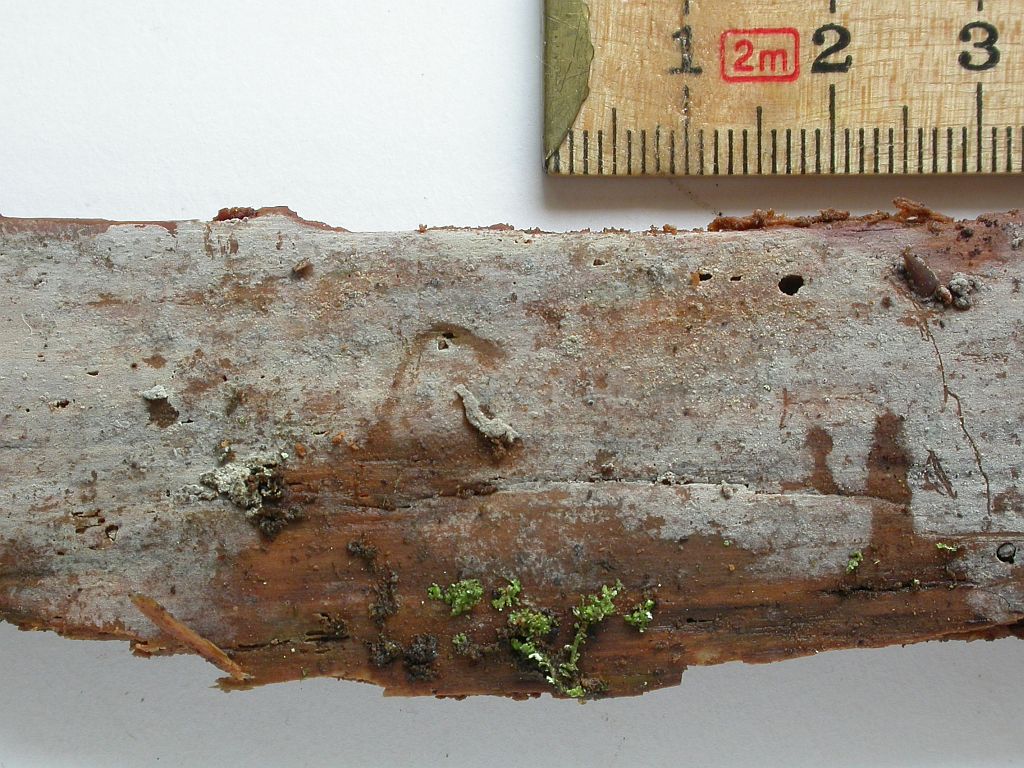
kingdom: Fungi
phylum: Basidiomycota
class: Agaricomycetes
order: Hymenochaetales
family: Hyphodontiaceae
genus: Hyphodontia
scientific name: Hyphodontia pallidula
